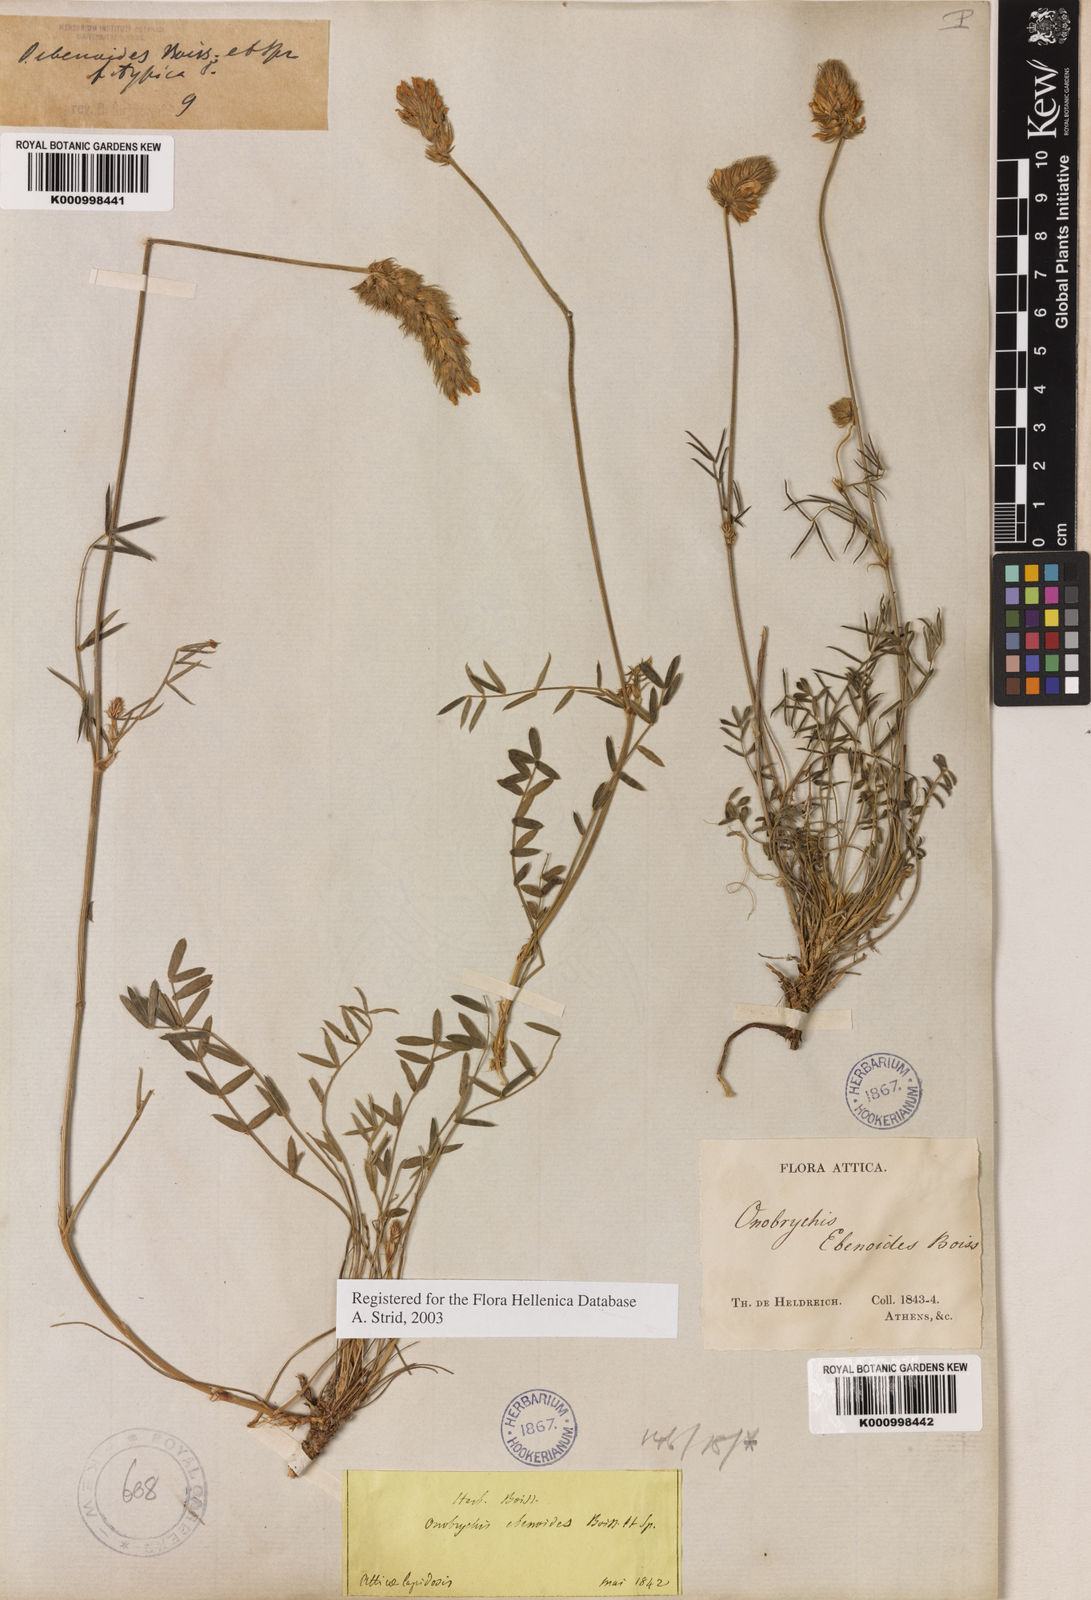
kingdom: Plantae
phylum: Tracheophyta
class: Magnoliopsida
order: Fabales
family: Fabaceae
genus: Onobrychis
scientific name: Onobrychis ebenoides
